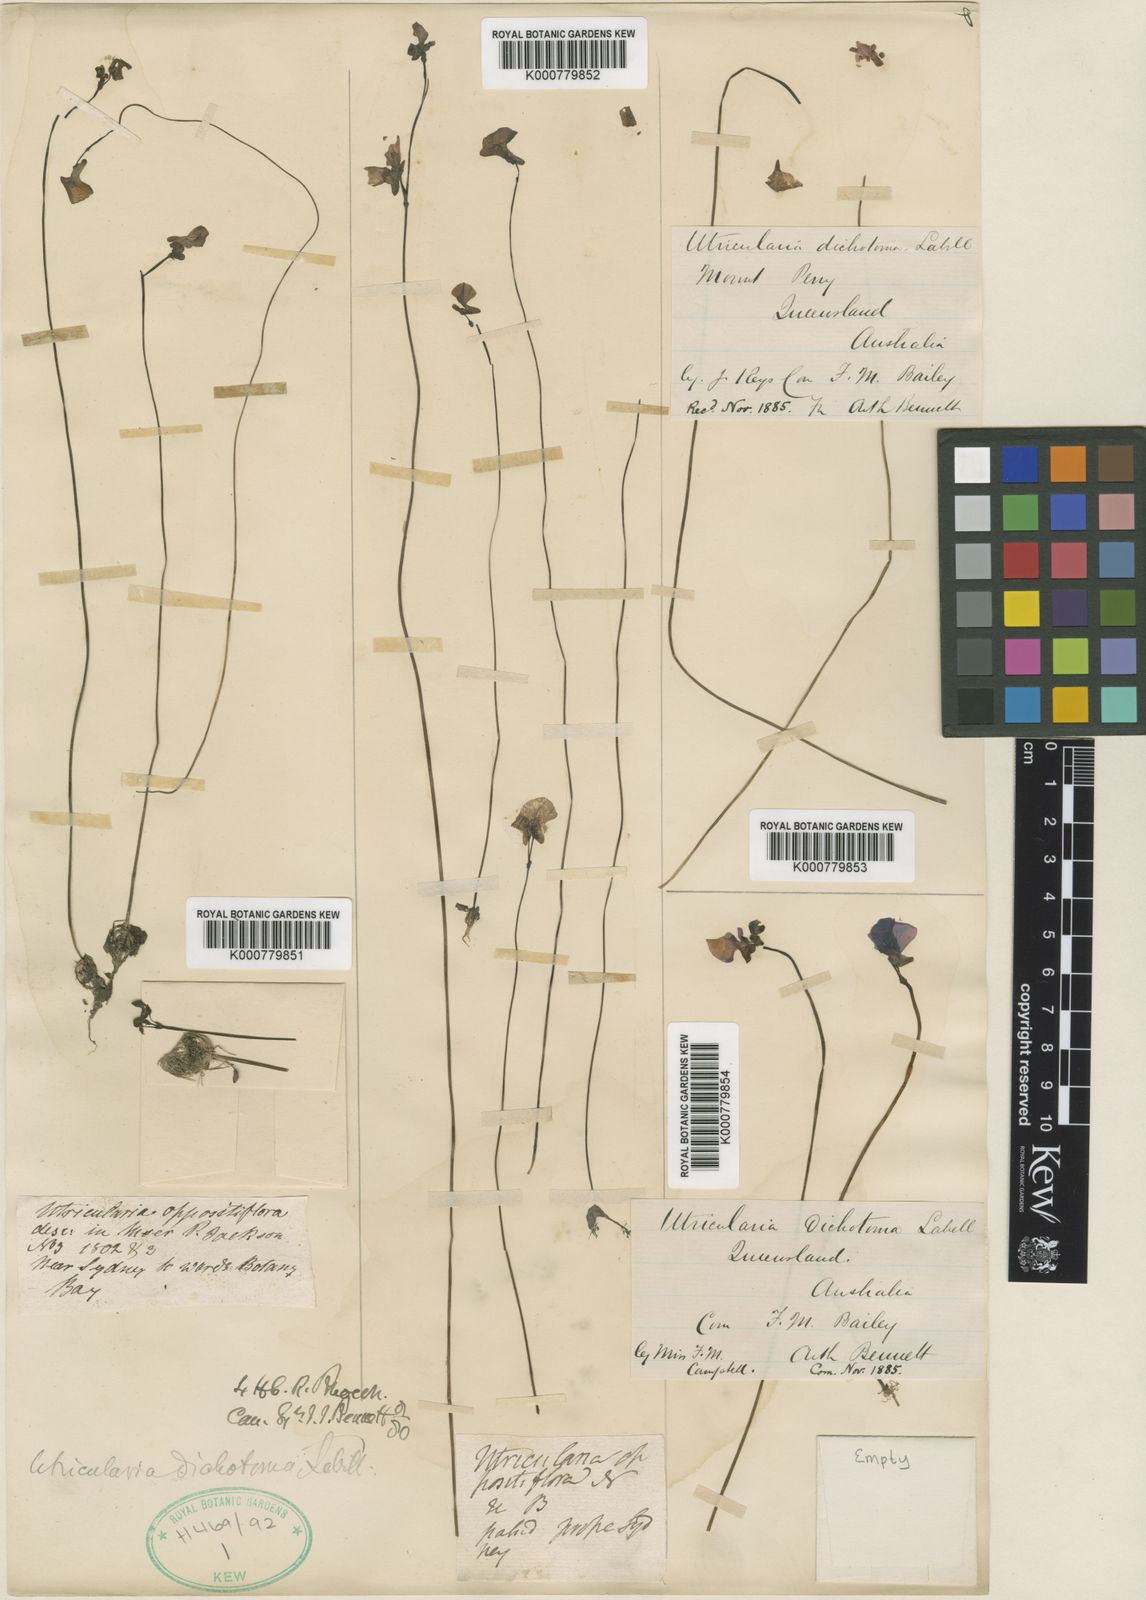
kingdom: Plantae
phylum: Tracheophyta
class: Magnoliopsida
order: Lamiales
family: Lentibulariaceae
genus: Utricularia
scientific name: Utricularia dichotoma
